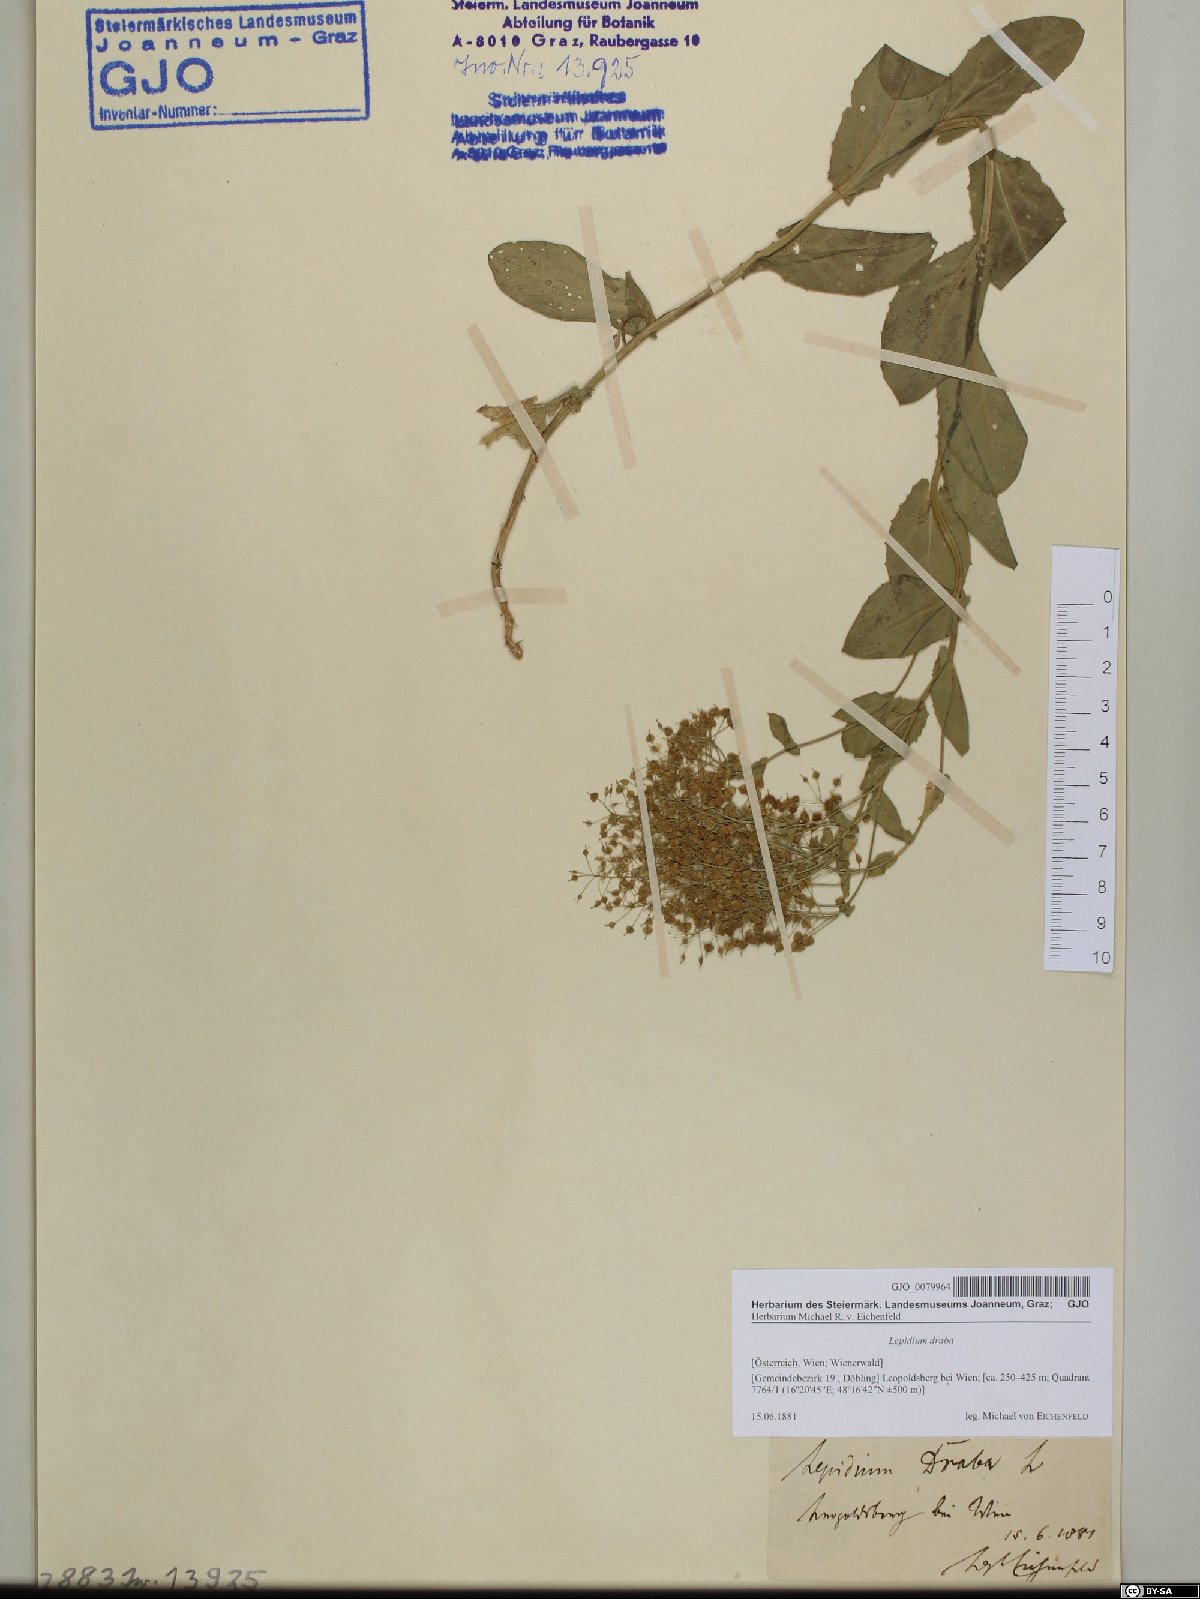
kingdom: Plantae
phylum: Tracheophyta
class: Magnoliopsida
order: Brassicales
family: Brassicaceae
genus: Lepidium
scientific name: Lepidium draba
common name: Hoary cress
